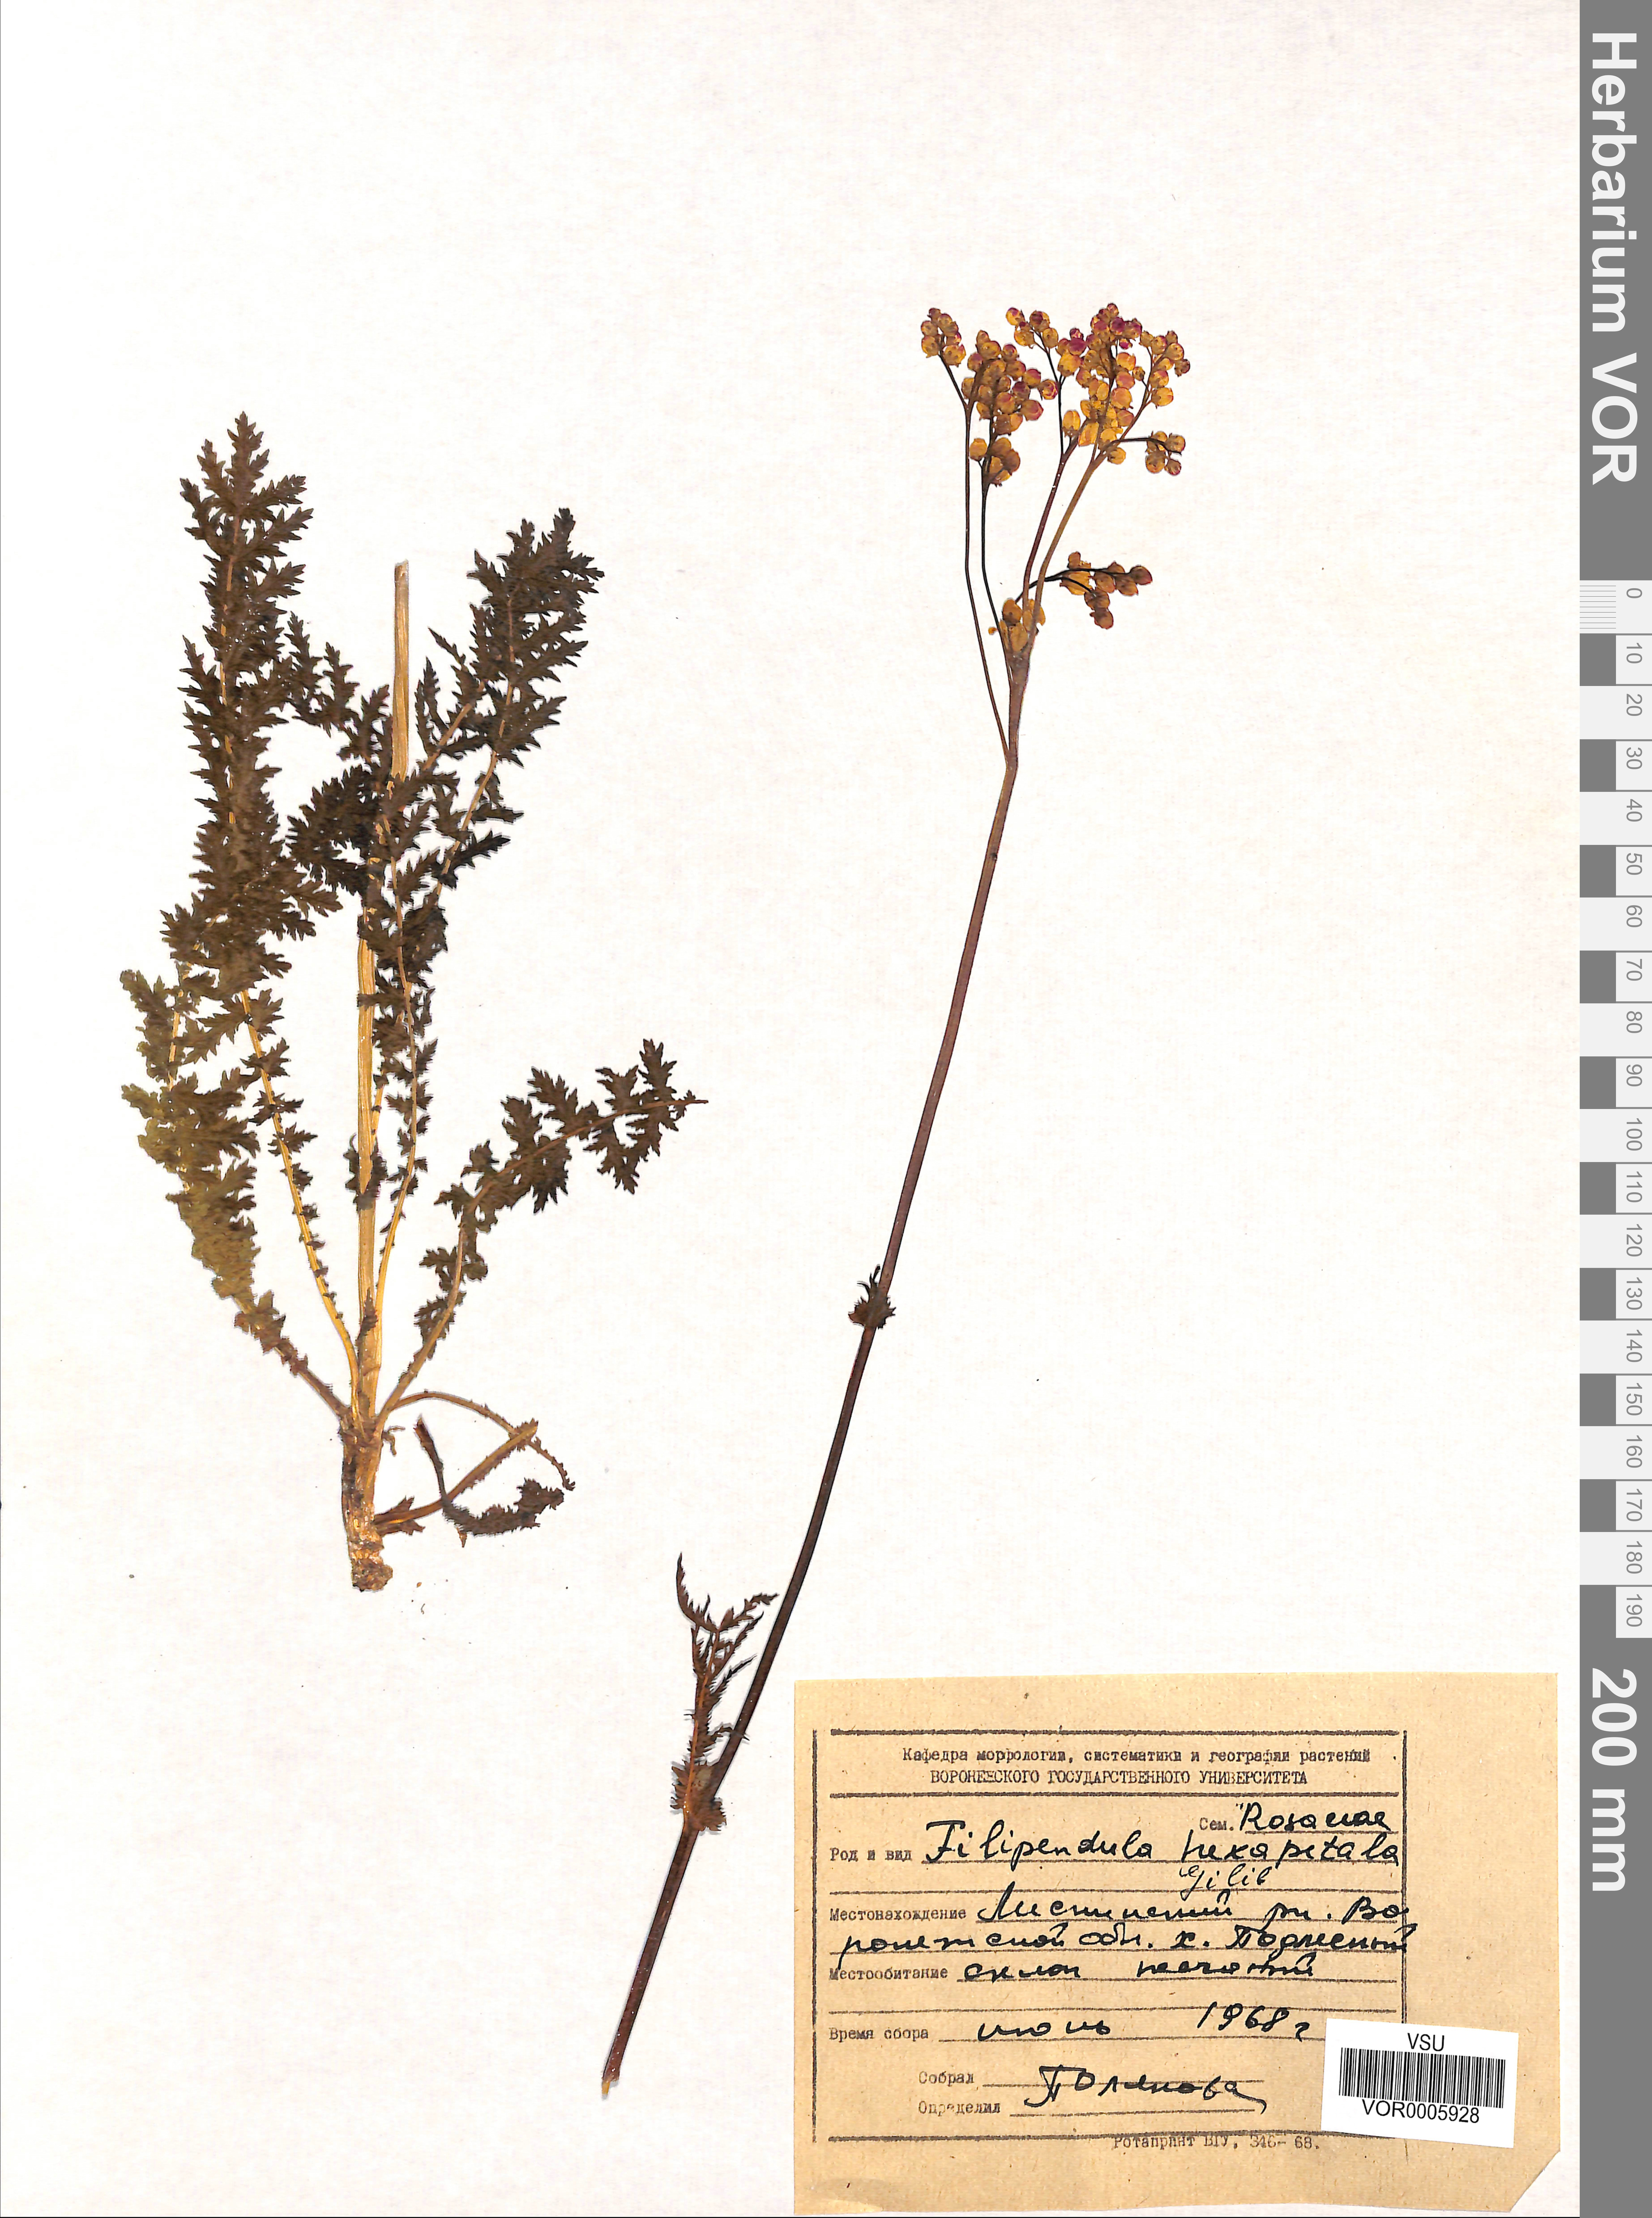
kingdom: Plantae
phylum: Tracheophyta
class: Magnoliopsida
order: Rosales
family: Rosaceae
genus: Filipendula
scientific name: Filipendula vulgaris
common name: Dropwort
